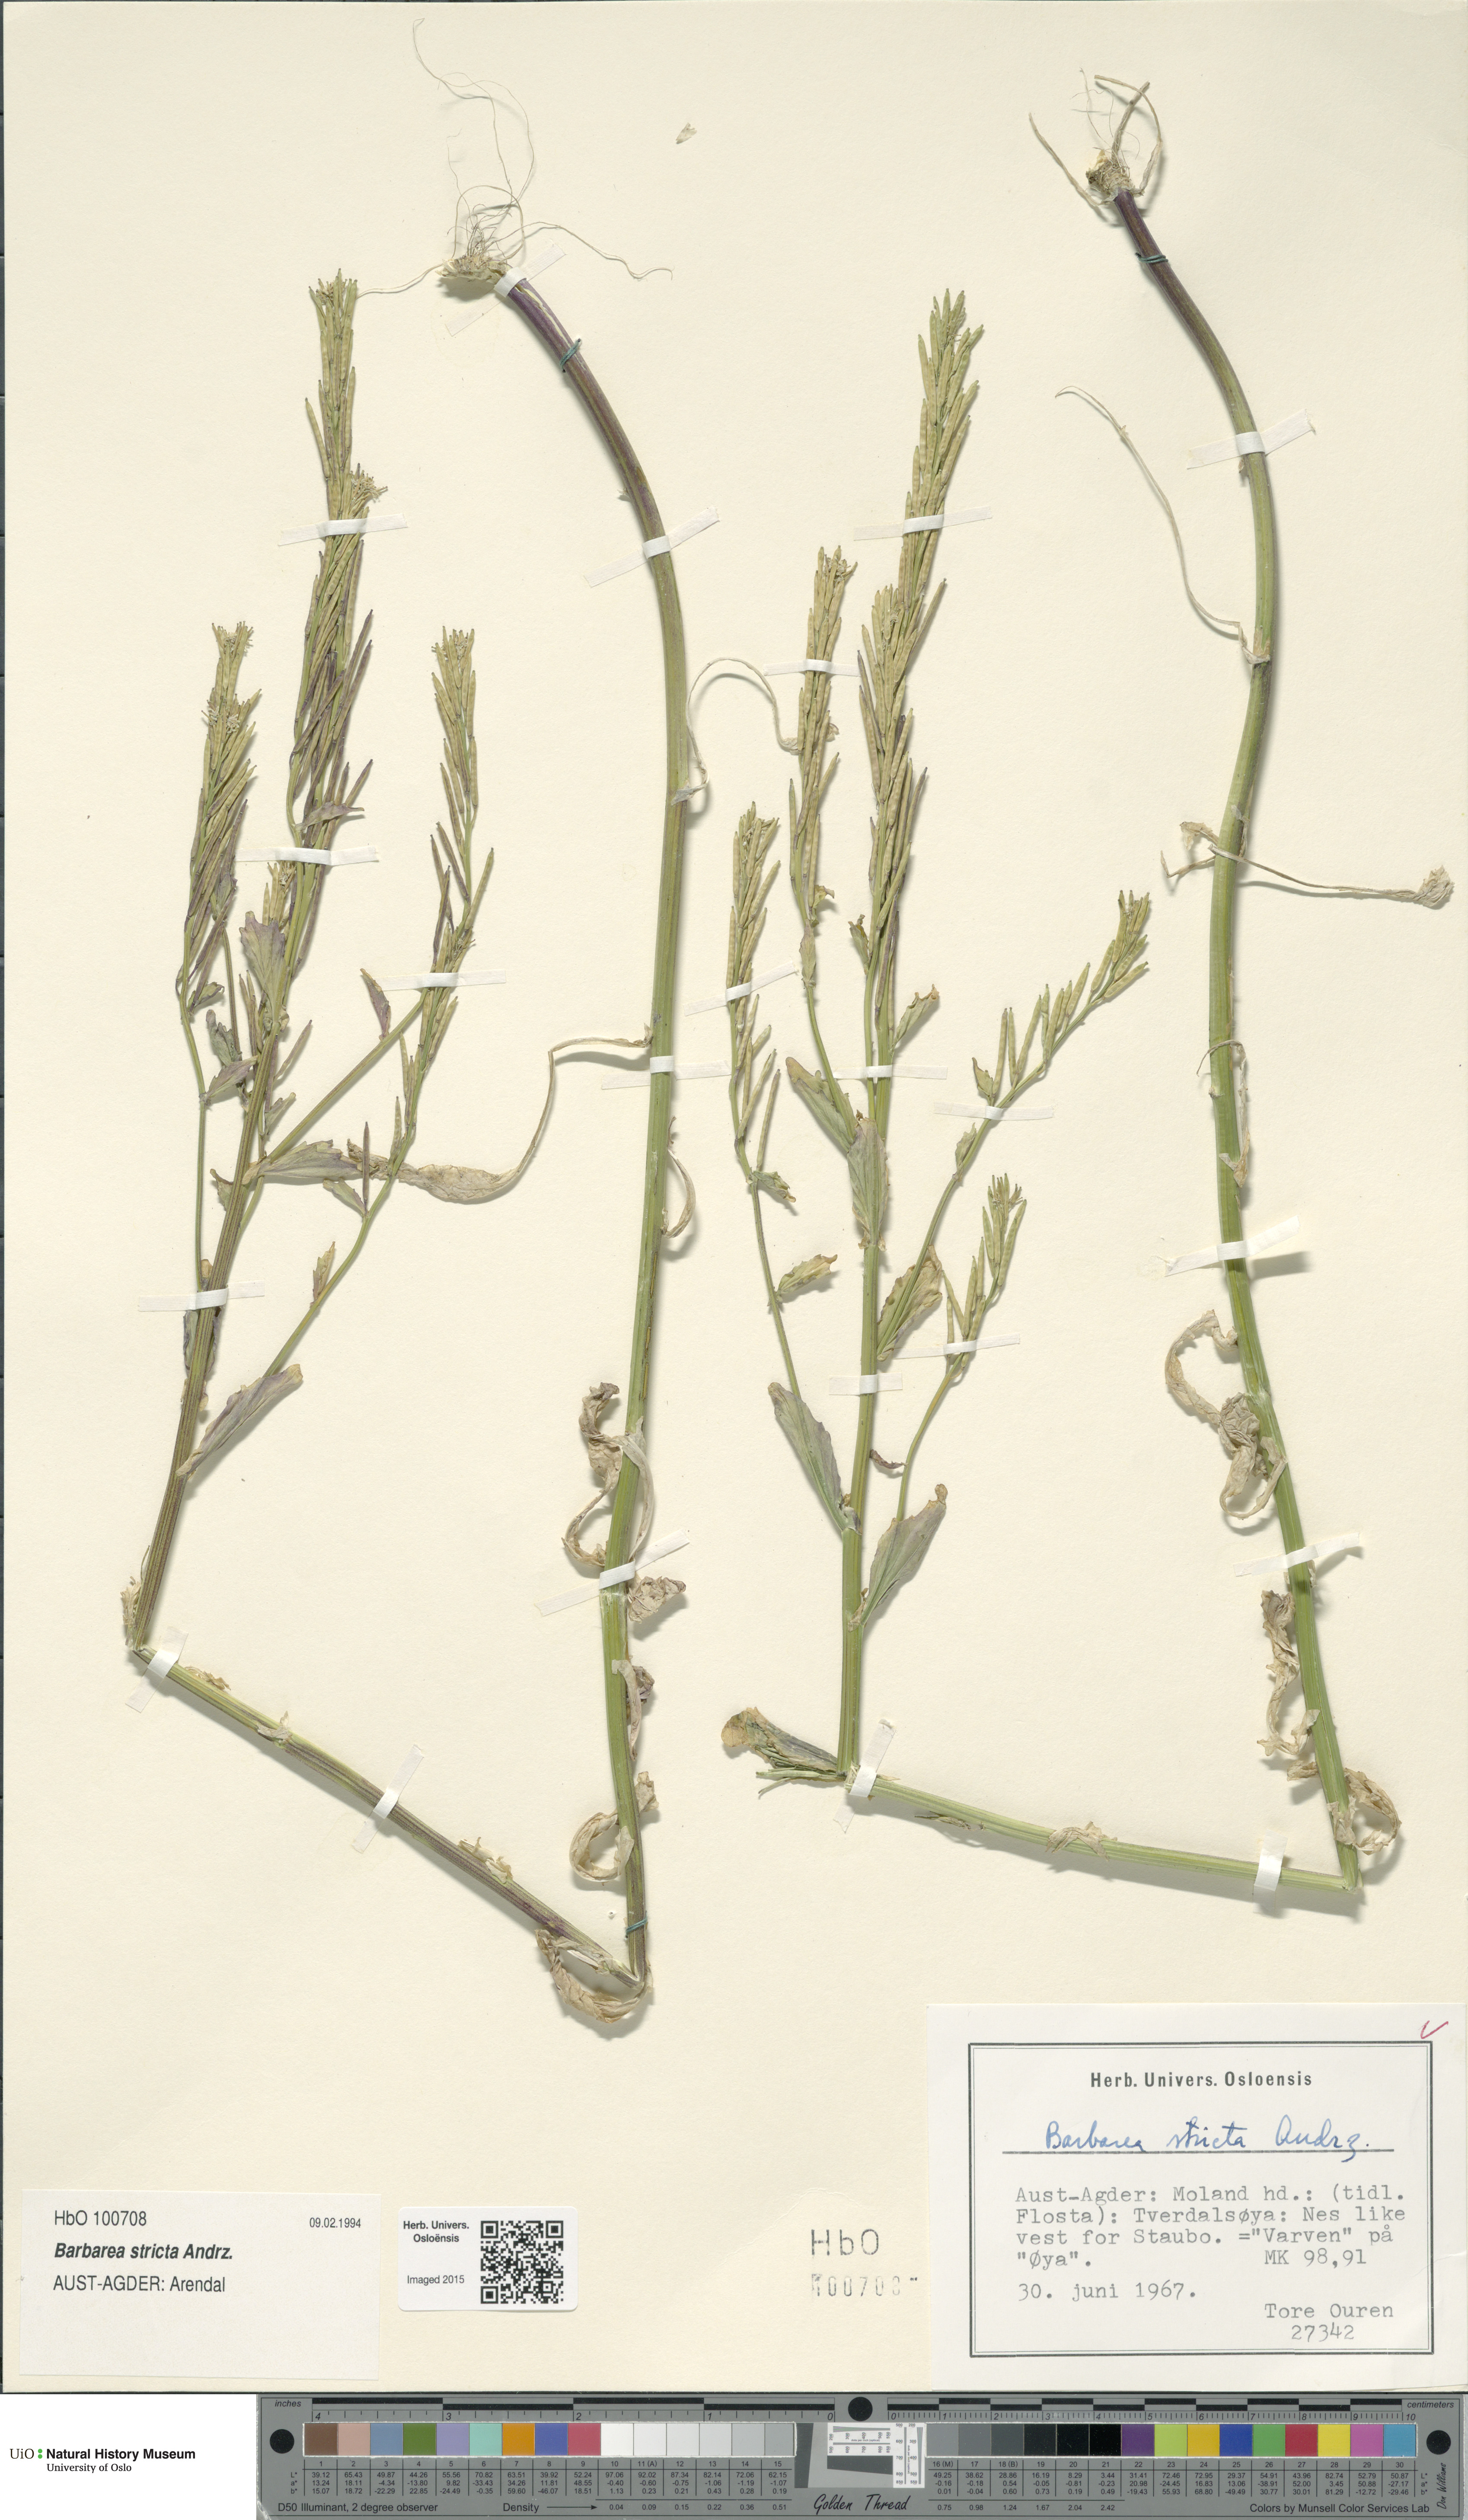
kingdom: Plantae
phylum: Tracheophyta
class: Magnoliopsida
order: Brassicales
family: Brassicaceae
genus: Barbarea
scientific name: Barbarea stricta
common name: Small-flowered winter-cress
